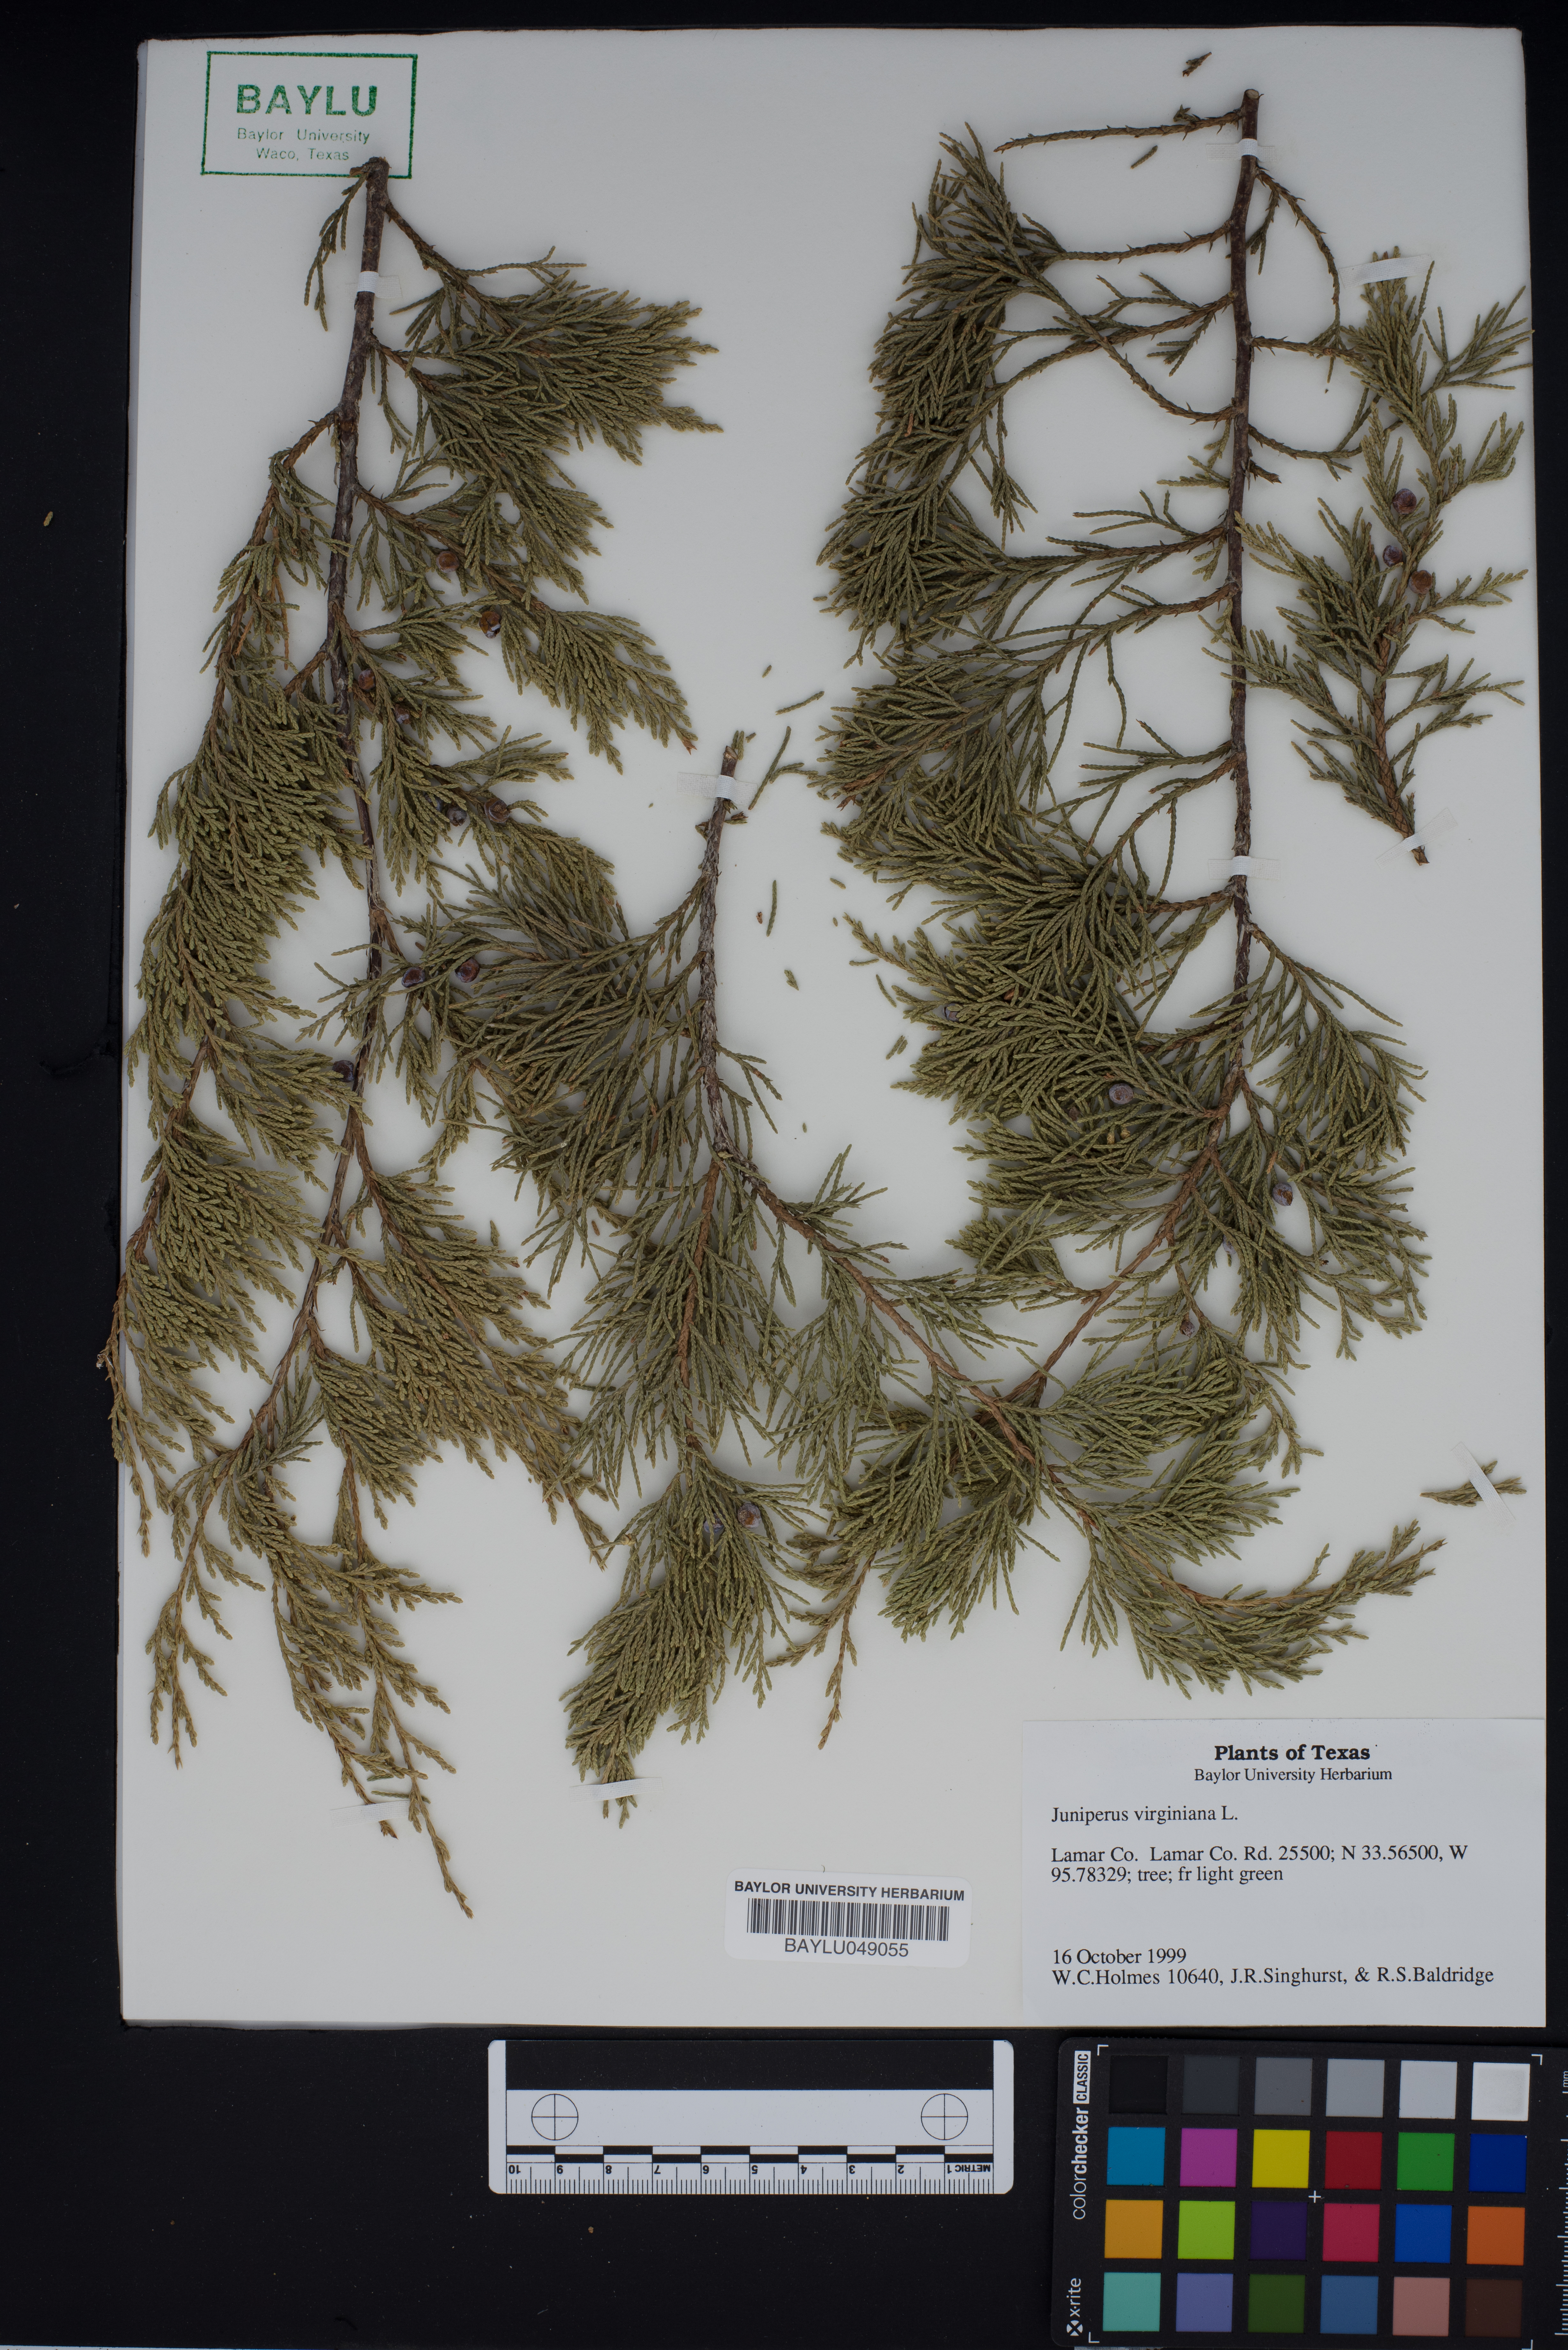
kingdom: Plantae
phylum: Tracheophyta
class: Pinopsida
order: Pinales
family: Cupressaceae
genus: Juniperus
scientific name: Juniperus virginiana
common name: Red juniper
